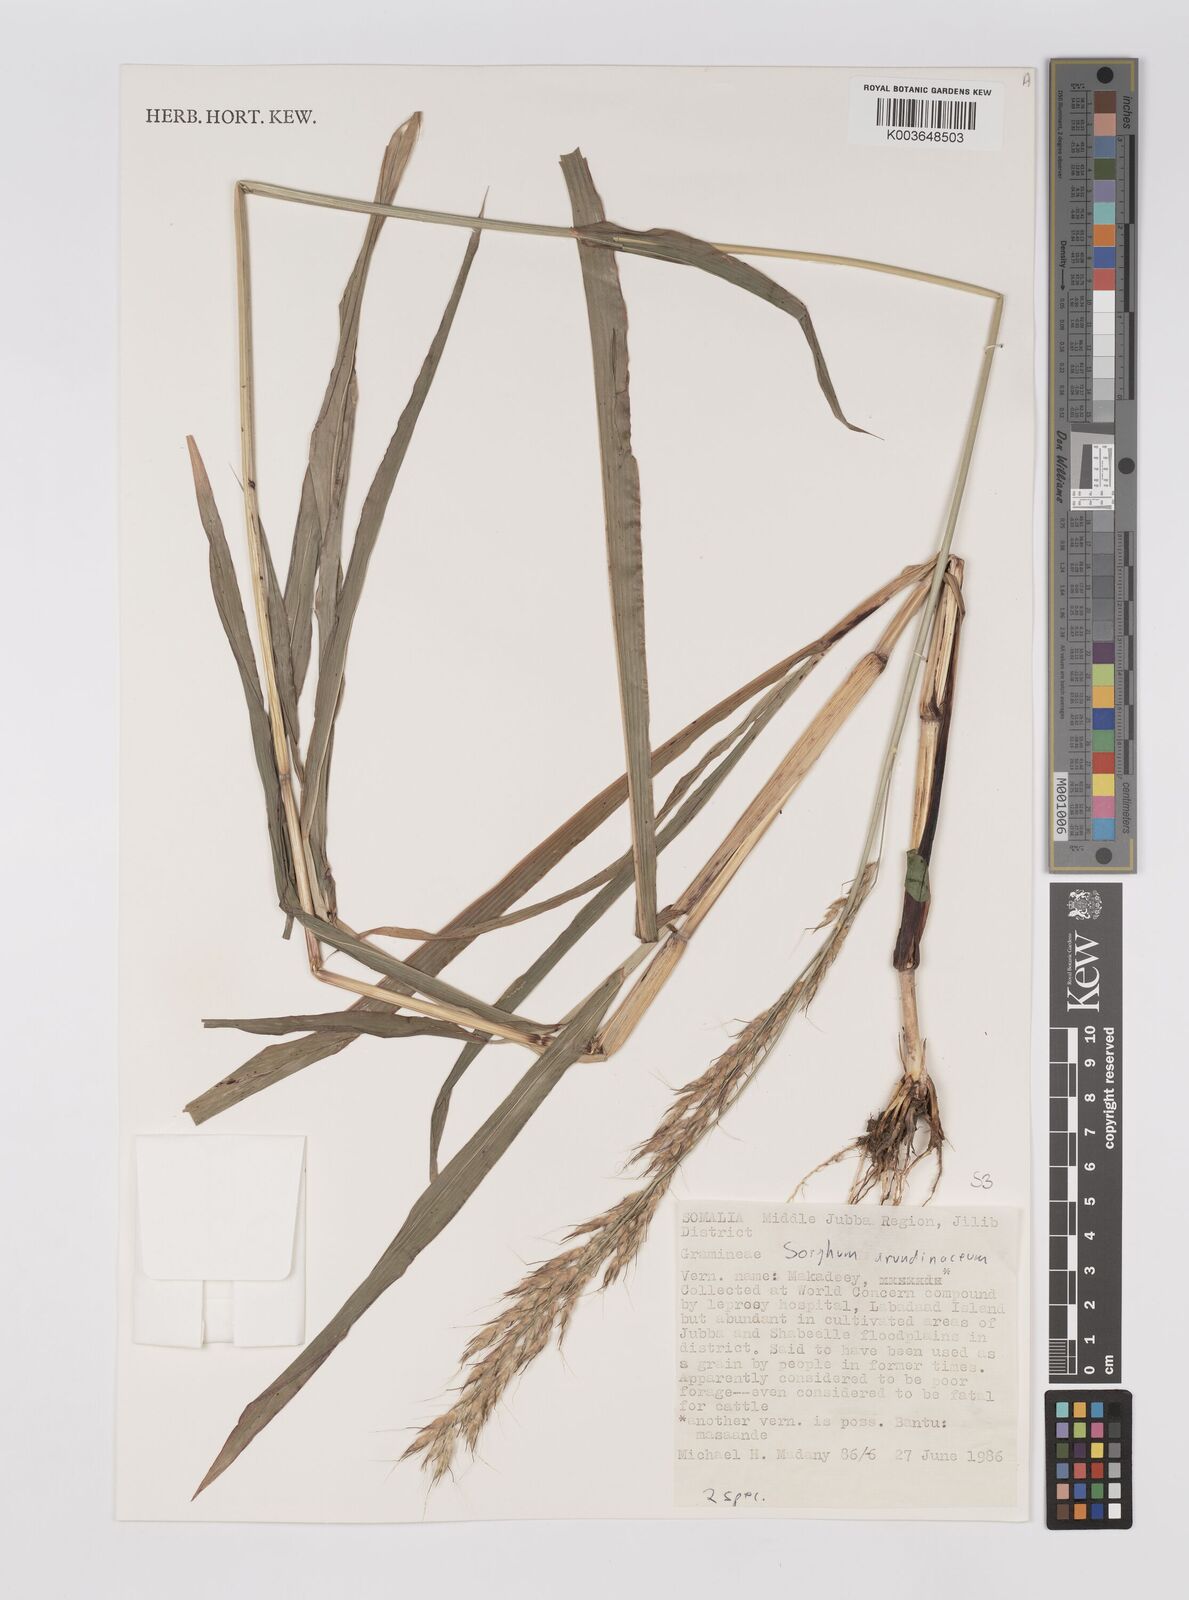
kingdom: Plantae
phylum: Tracheophyta
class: Liliopsida
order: Poales
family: Poaceae
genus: Sorghum
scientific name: Sorghum arundinaceum
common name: Sorghum
